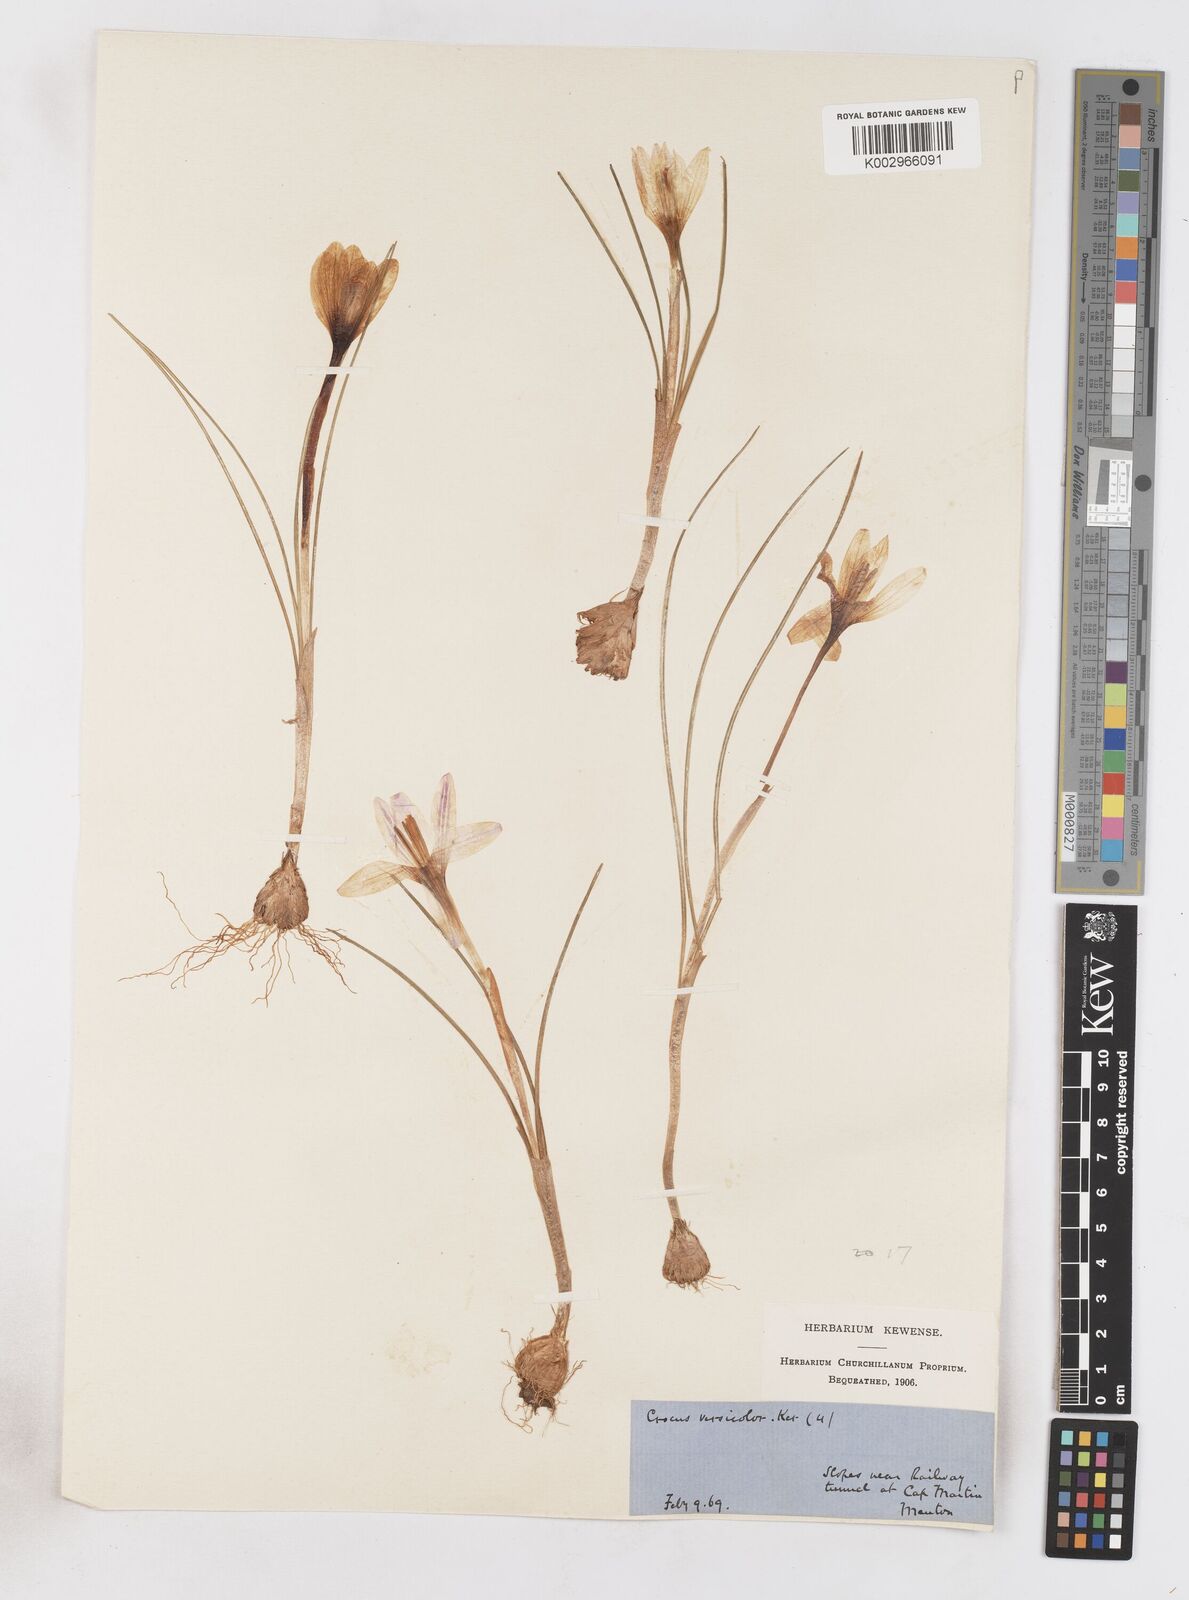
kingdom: Plantae
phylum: Tracheophyta
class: Liliopsida
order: Asparagales
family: Iridaceae
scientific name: Iridaceae
